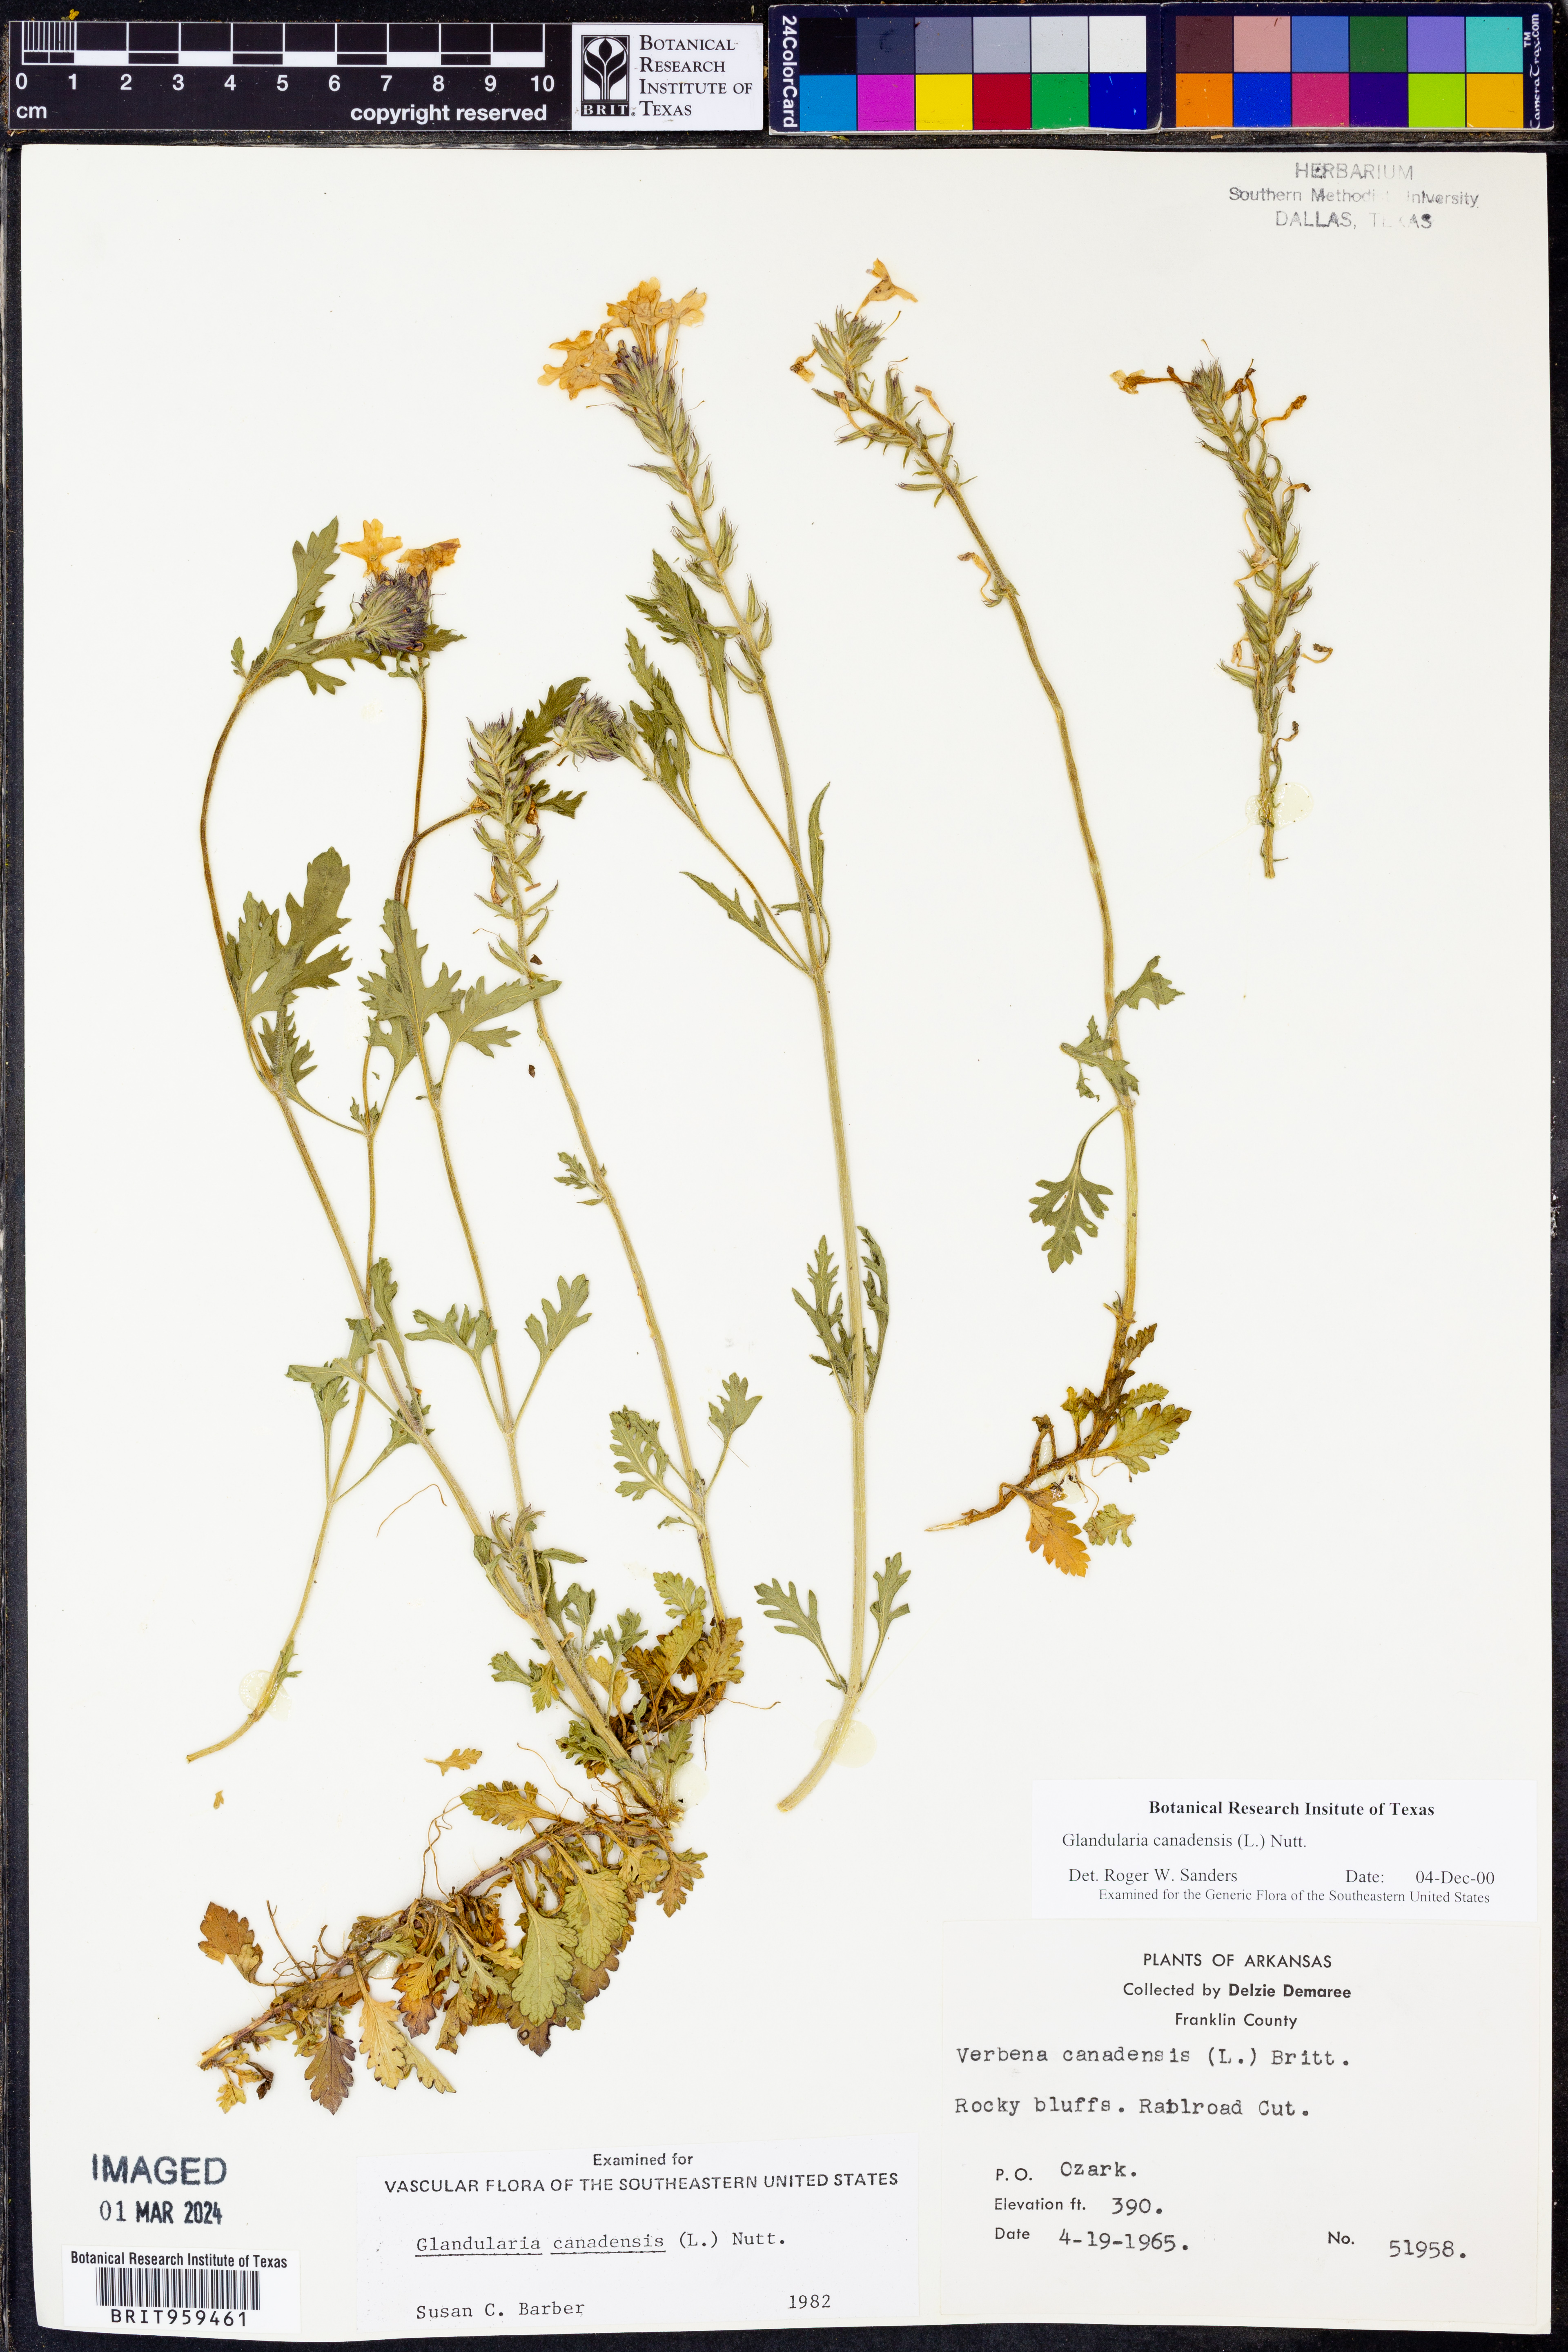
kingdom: Plantae
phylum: Tracheophyta
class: Magnoliopsida
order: Lamiales
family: Verbenaceae
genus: Verbena
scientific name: Verbena canadensis
